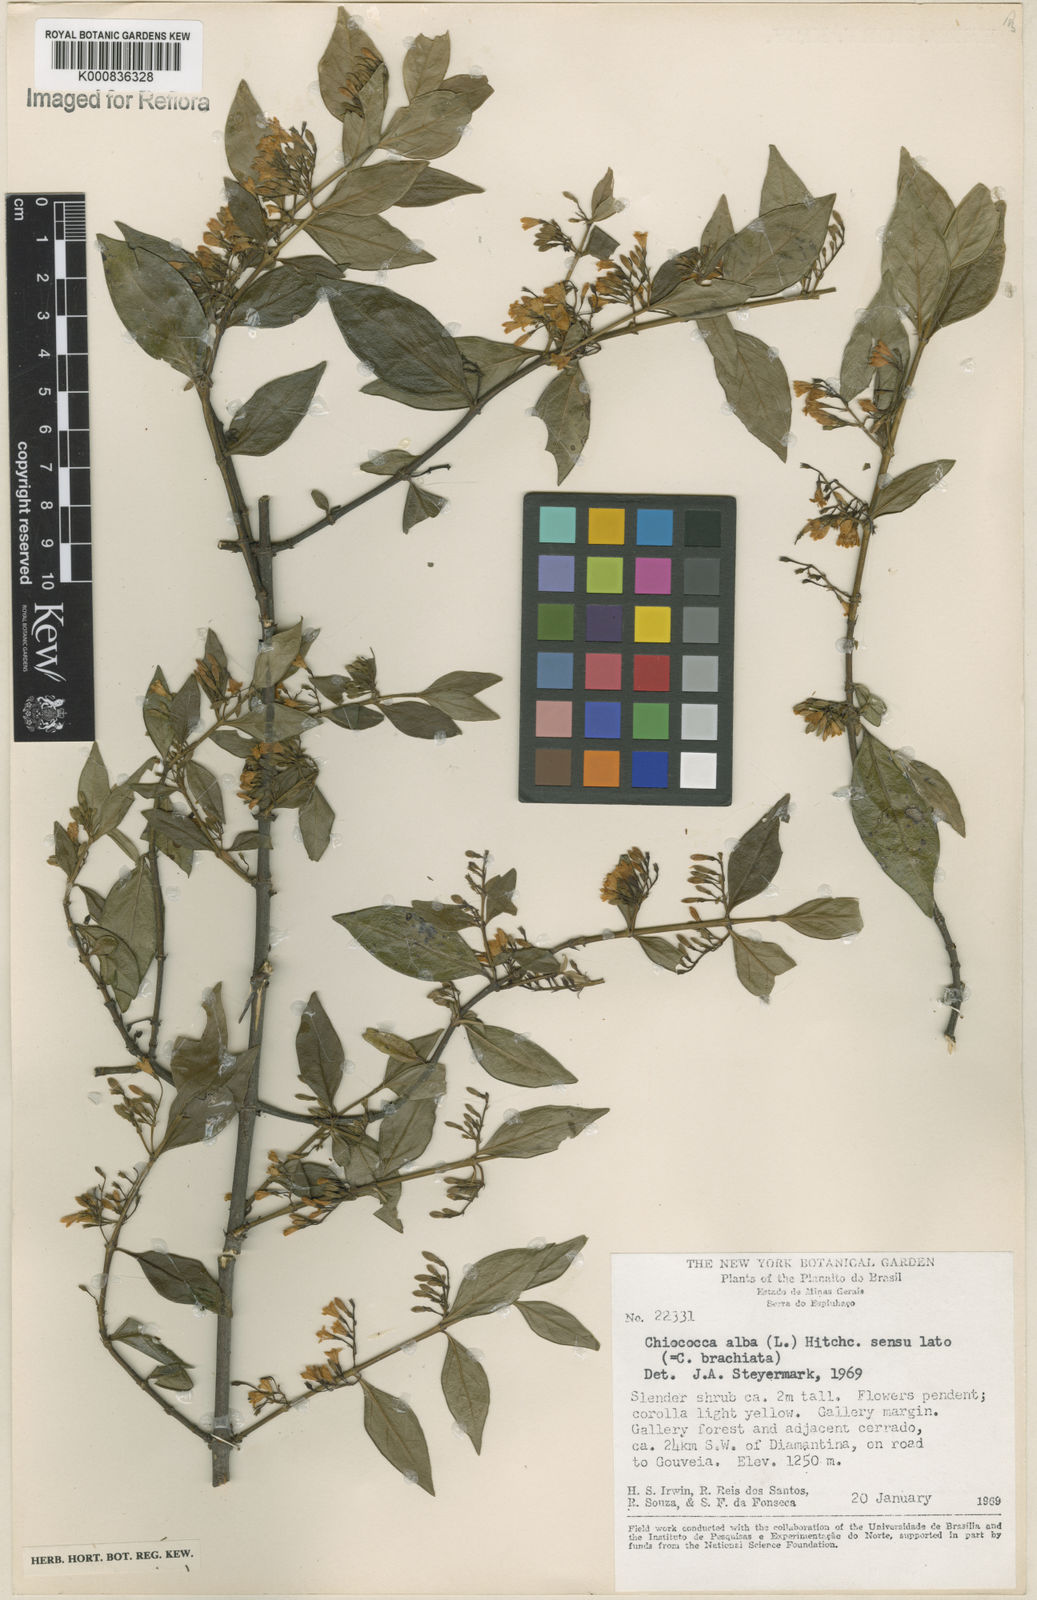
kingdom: Plantae
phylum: Tracheophyta
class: Magnoliopsida
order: Gentianales
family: Rubiaceae
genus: Chiococca
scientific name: Chiococca alba
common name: Snowberry
